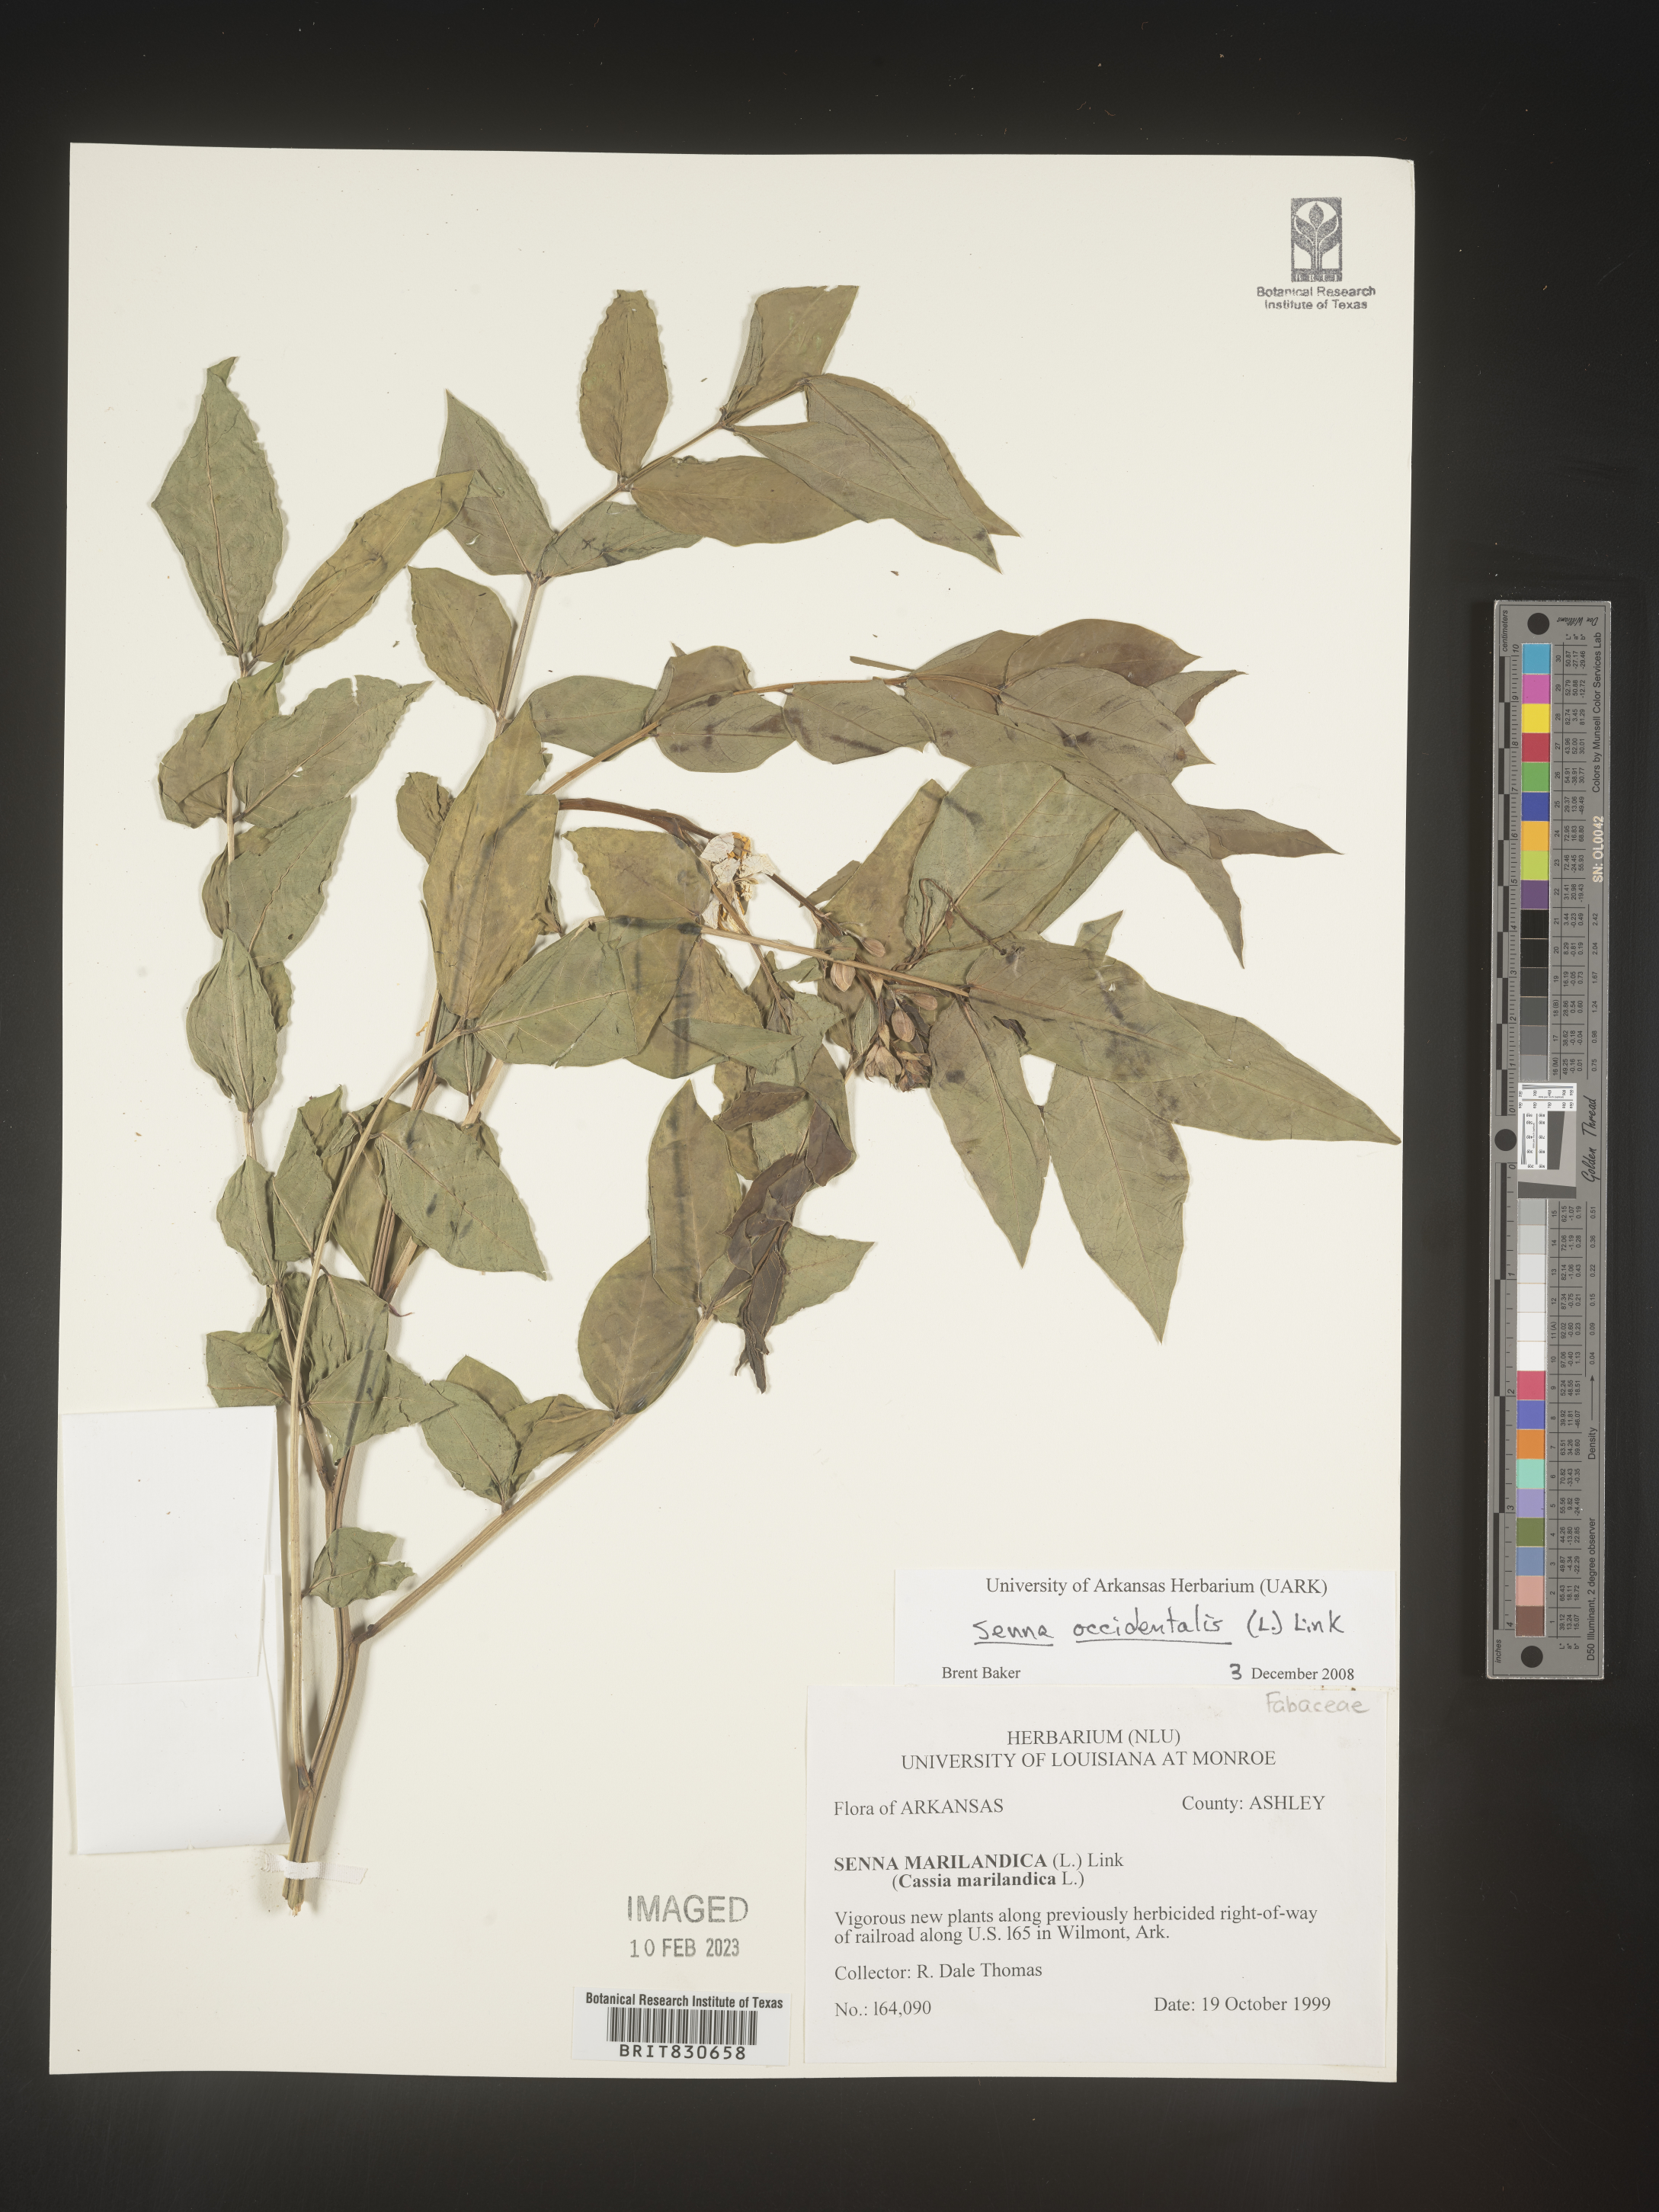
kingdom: Plantae
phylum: Tracheophyta
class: Magnoliopsida
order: Fabales
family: Fabaceae
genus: Senna
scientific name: Senna
